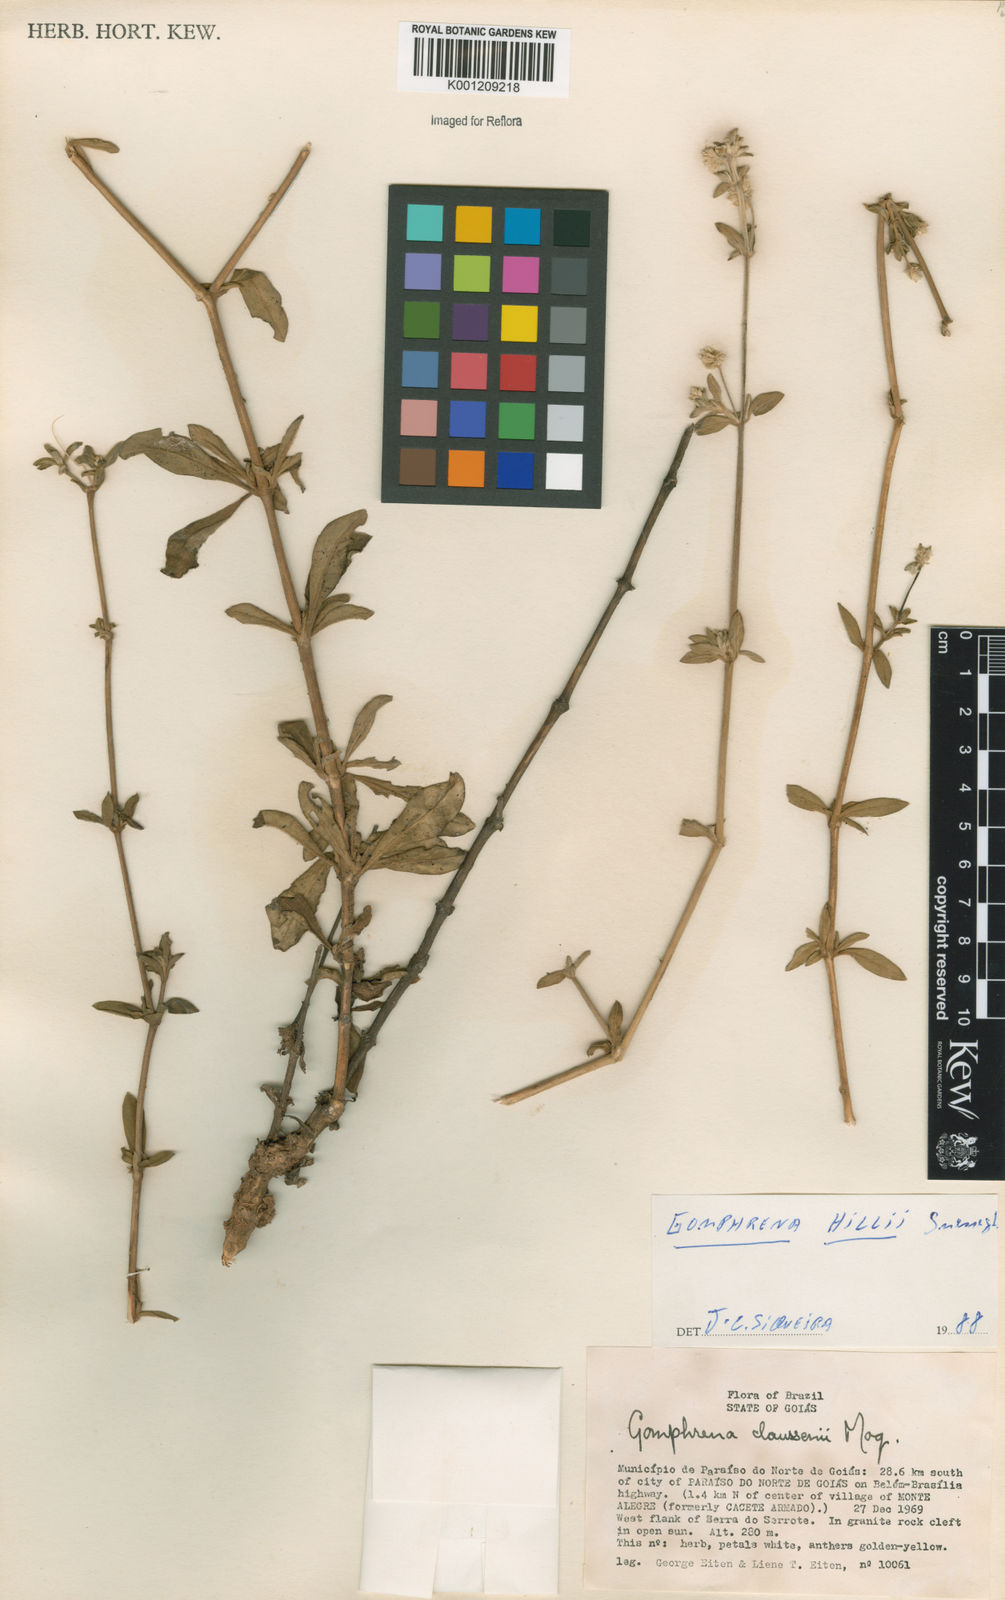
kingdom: Plantae
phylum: Tracheophyta
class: Magnoliopsida
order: Caryophyllales
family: Amaranthaceae
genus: Gomphrena
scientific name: Gomphrena hillii
